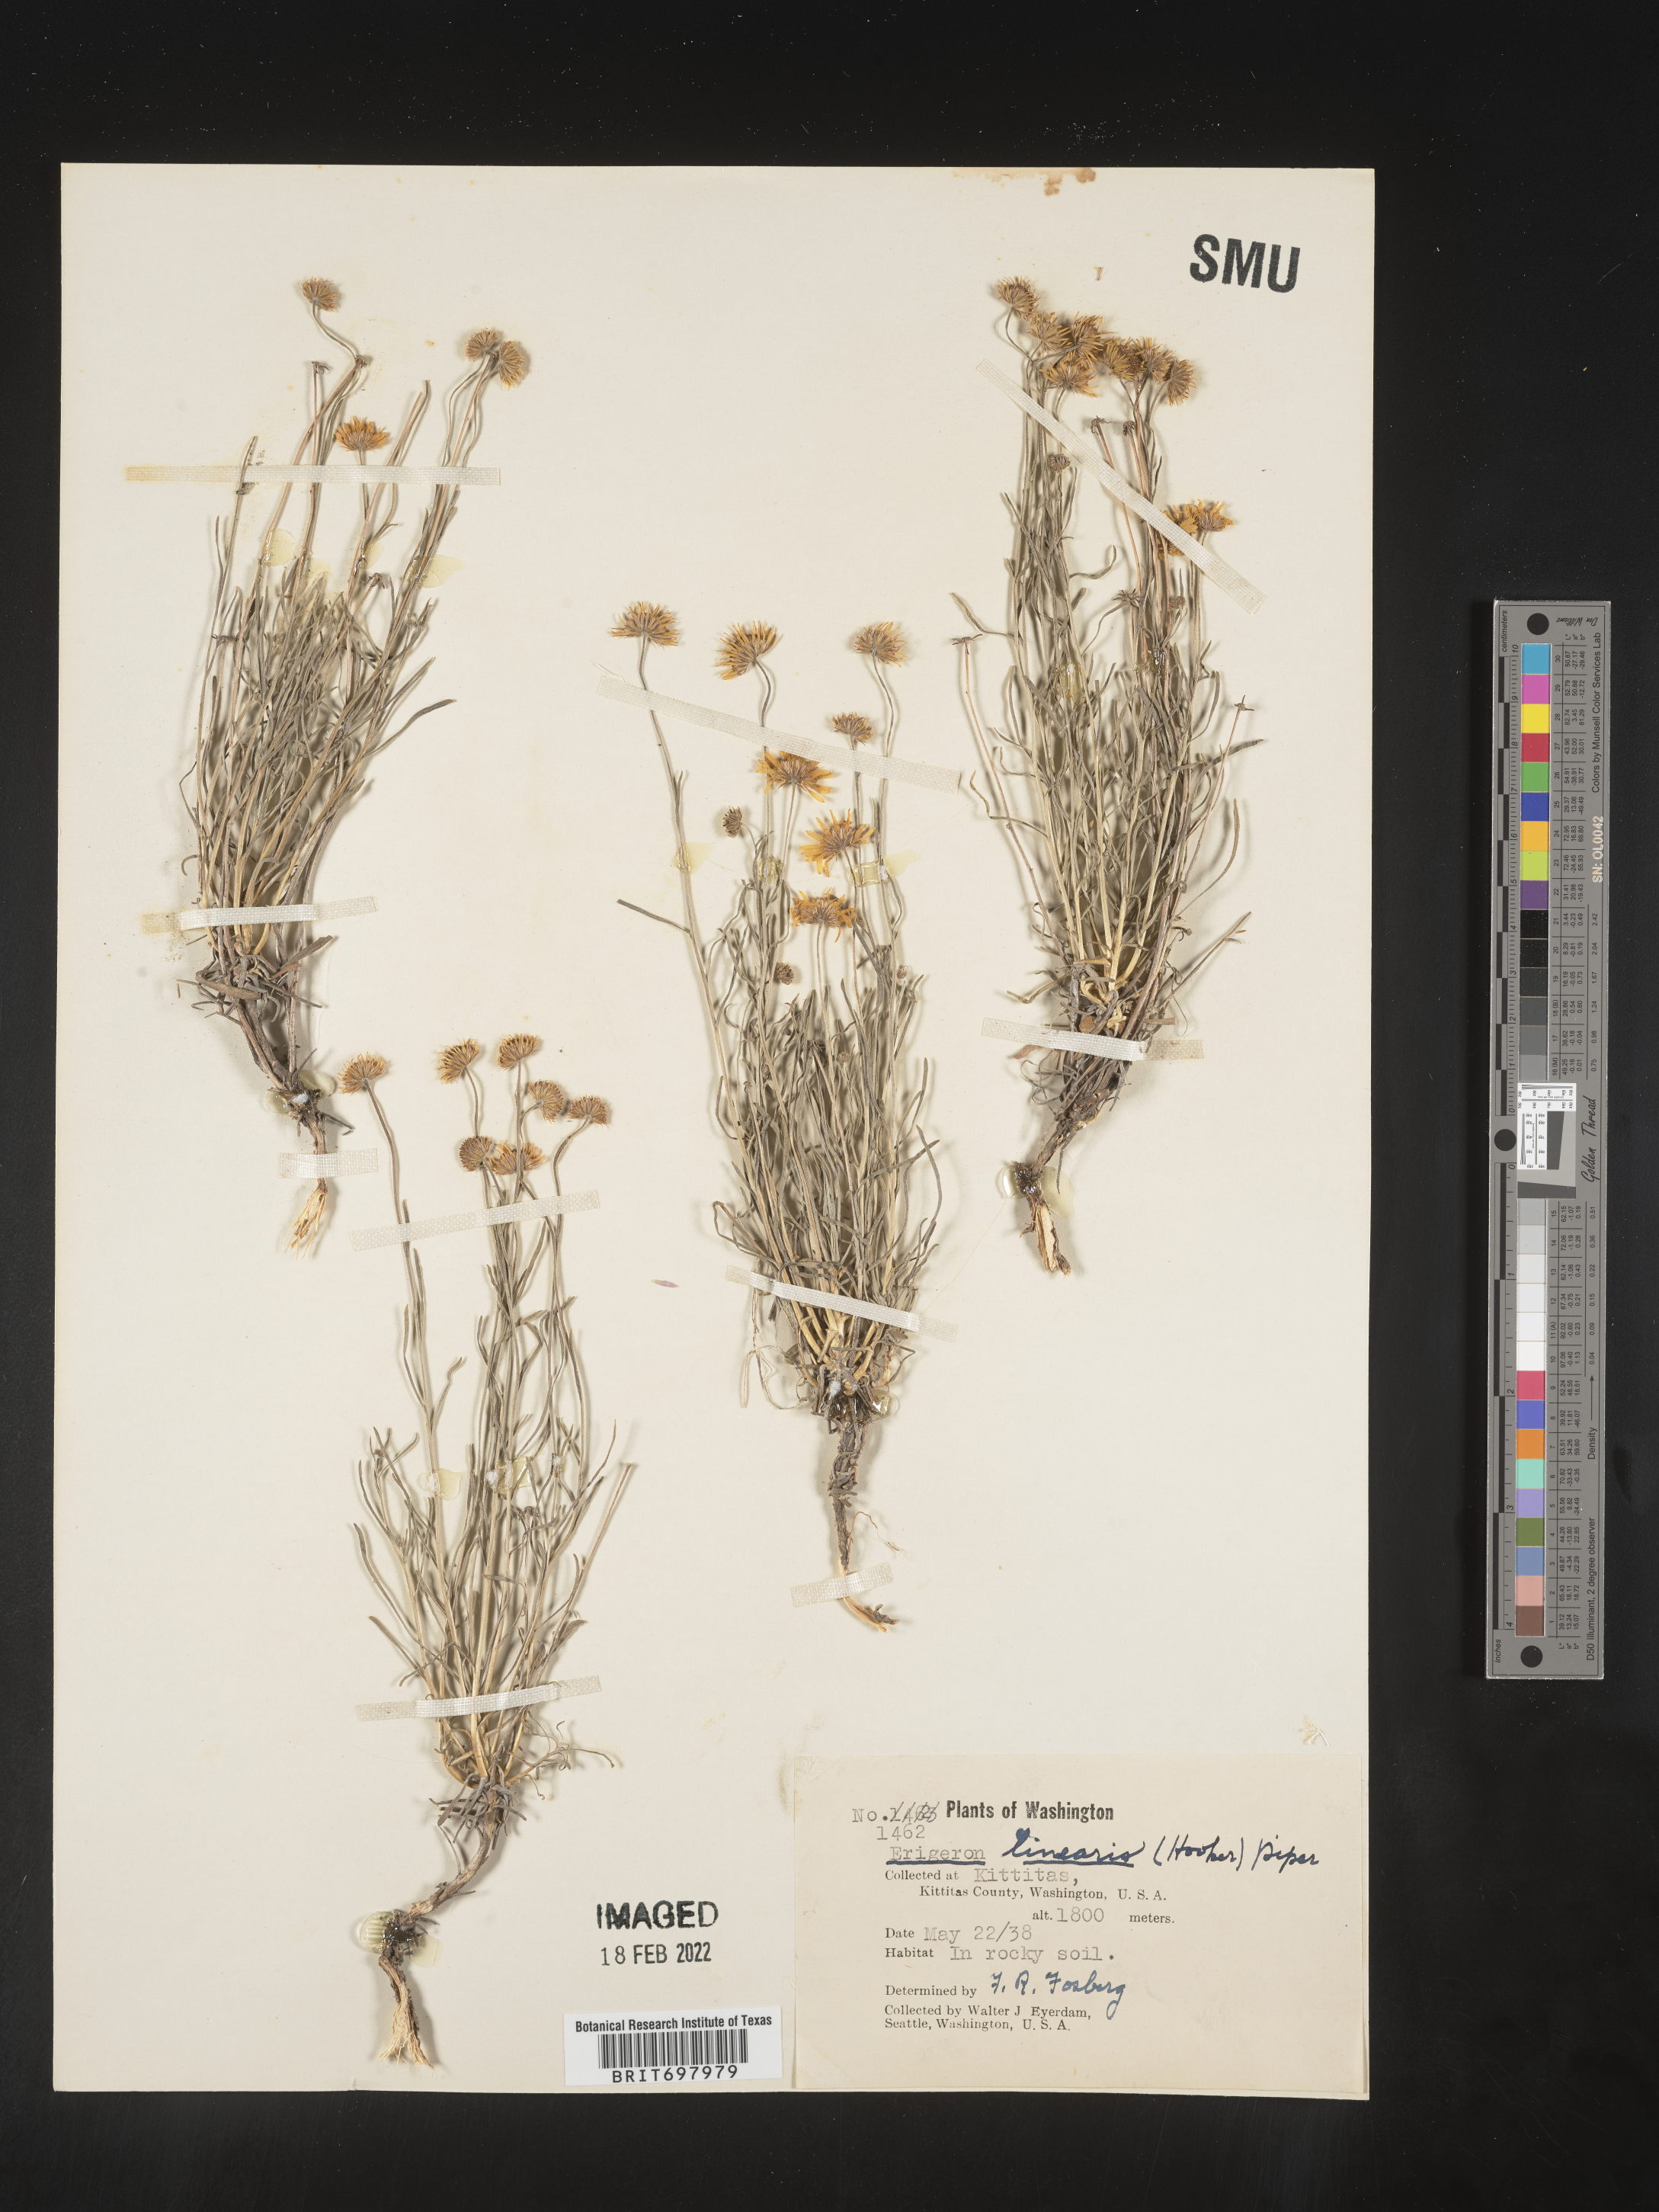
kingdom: Plantae
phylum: Tracheophyta
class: Magnoliopsida
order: Asterales
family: Asteraceae
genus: Erigeron
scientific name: Erigeron linearis
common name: Desert yellow fleabane
